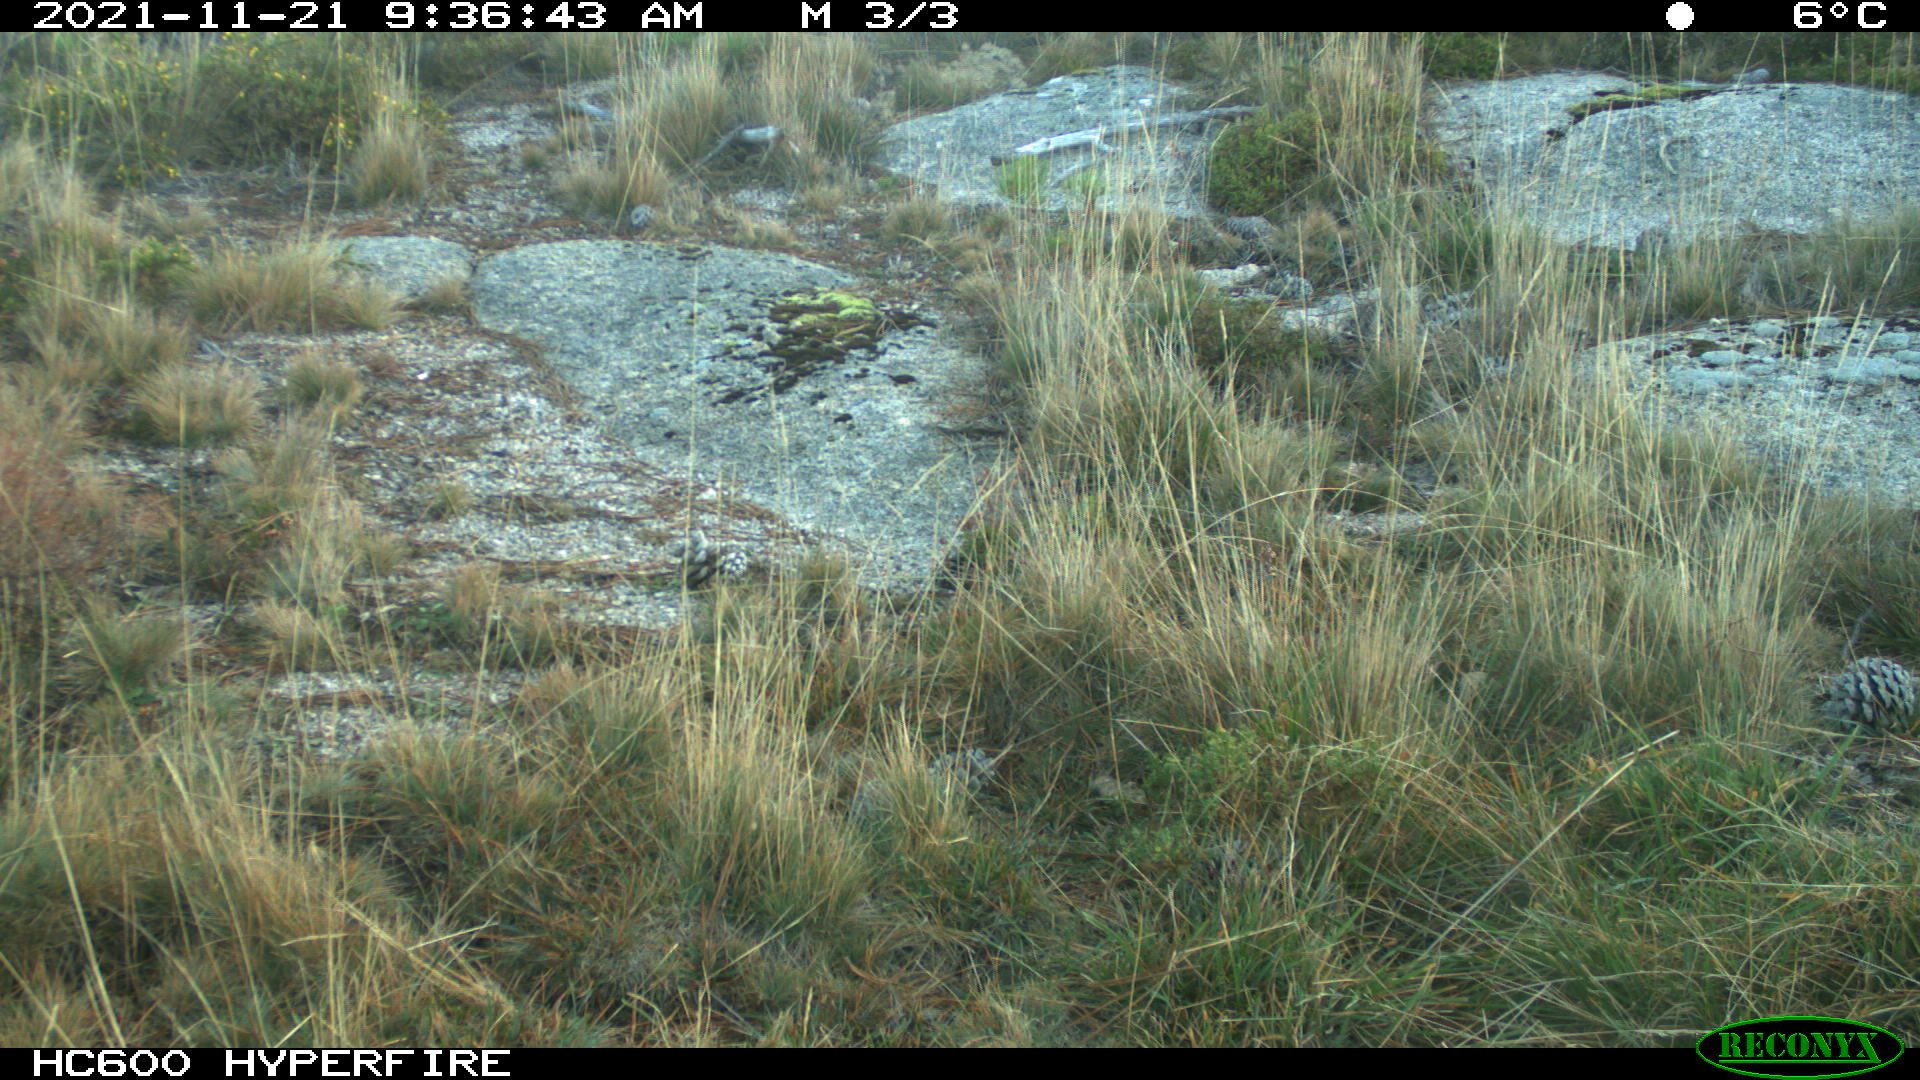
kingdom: Animalia
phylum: Chordata
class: Mammalia
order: Artiodactyla
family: Cervidae
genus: Capreolus
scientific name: Capreolus capreolus
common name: Western roe deer
